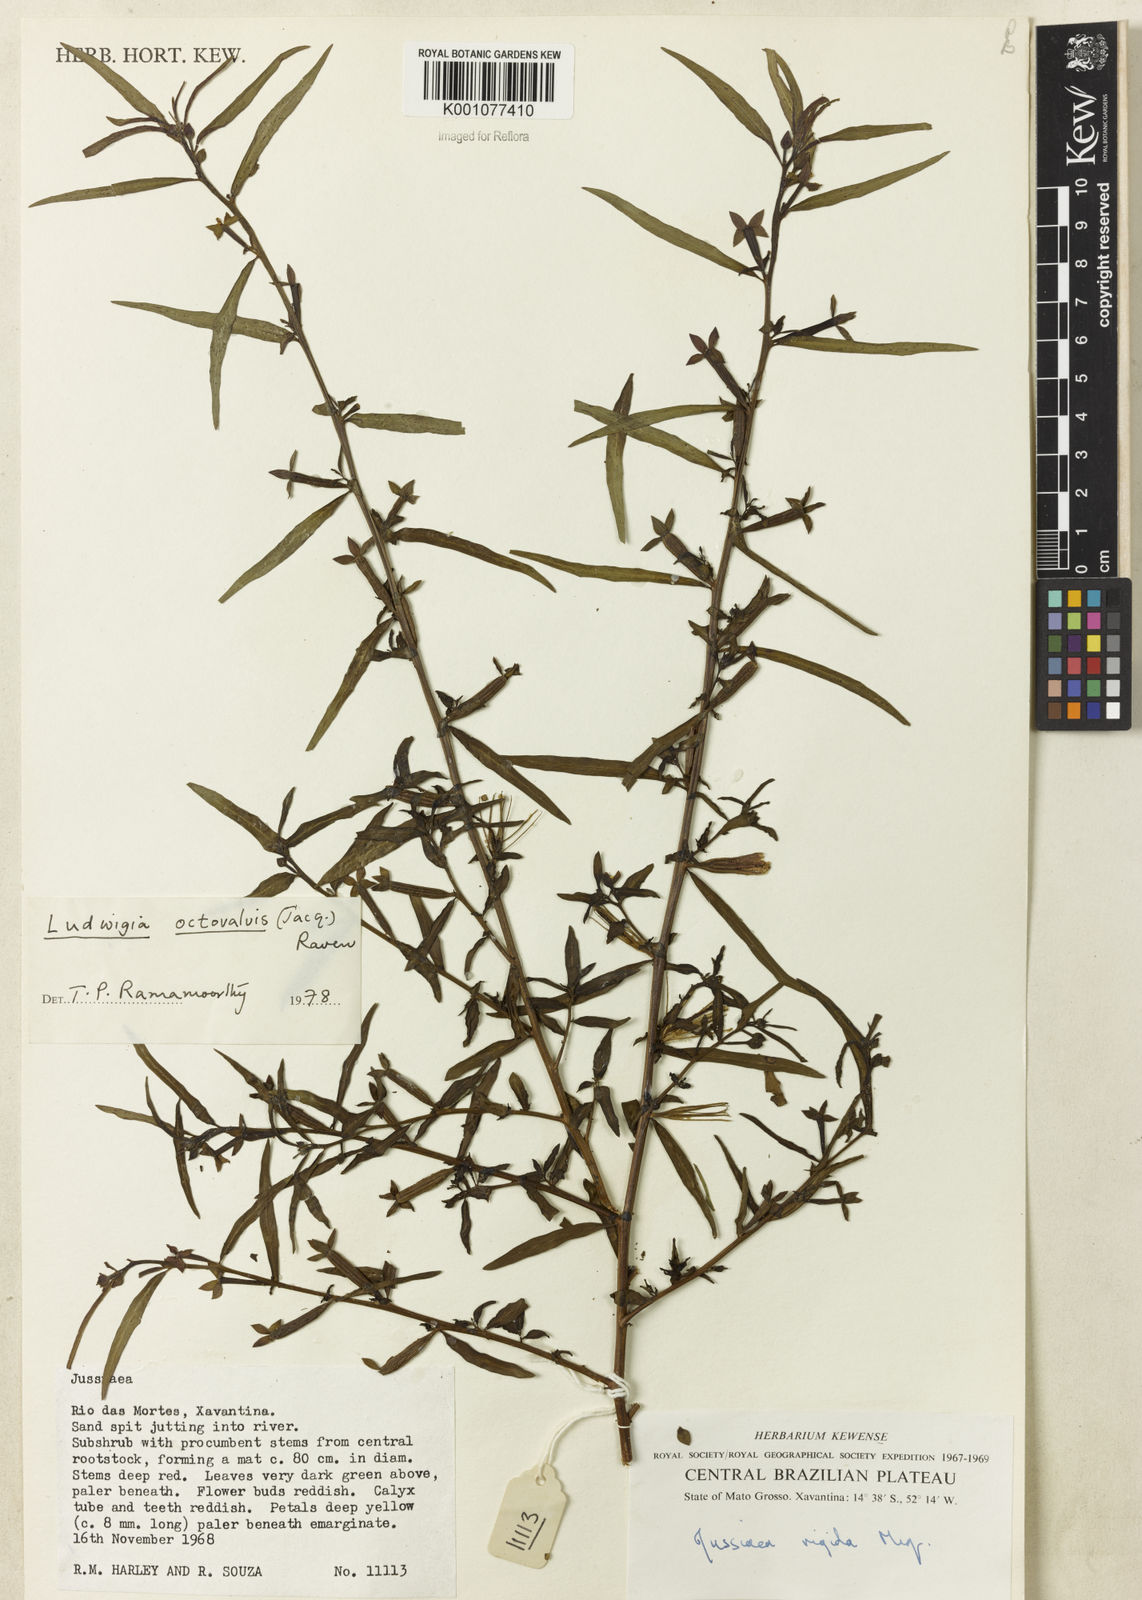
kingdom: Plantae
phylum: Tracheophyta
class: Magnoliopsida
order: Myrtales
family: Onagraceae
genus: Ludwigia
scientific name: Ludwigia octovalvis
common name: Water-primrose
